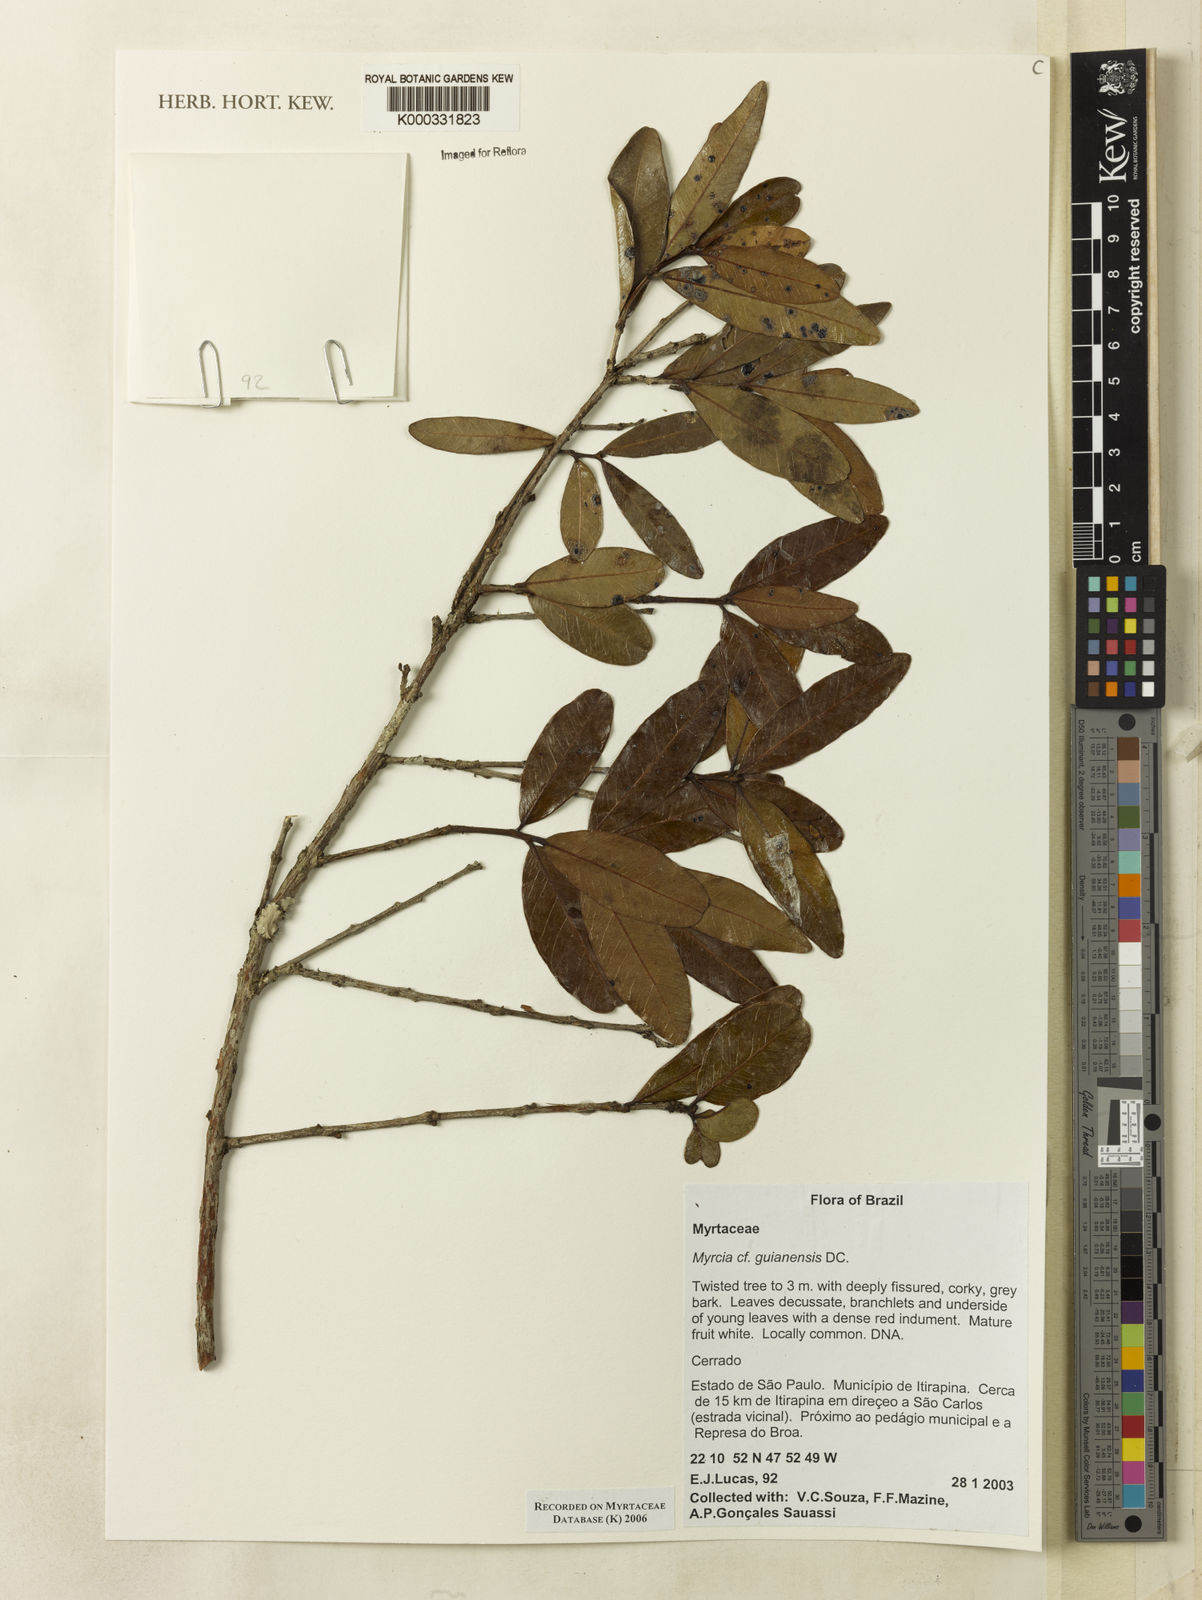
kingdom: Plantae
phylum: Tracheophyta
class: Magnoliopsida
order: Myrtales
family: Myrtaceae
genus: Myrcia
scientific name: Myrcia guianensis
